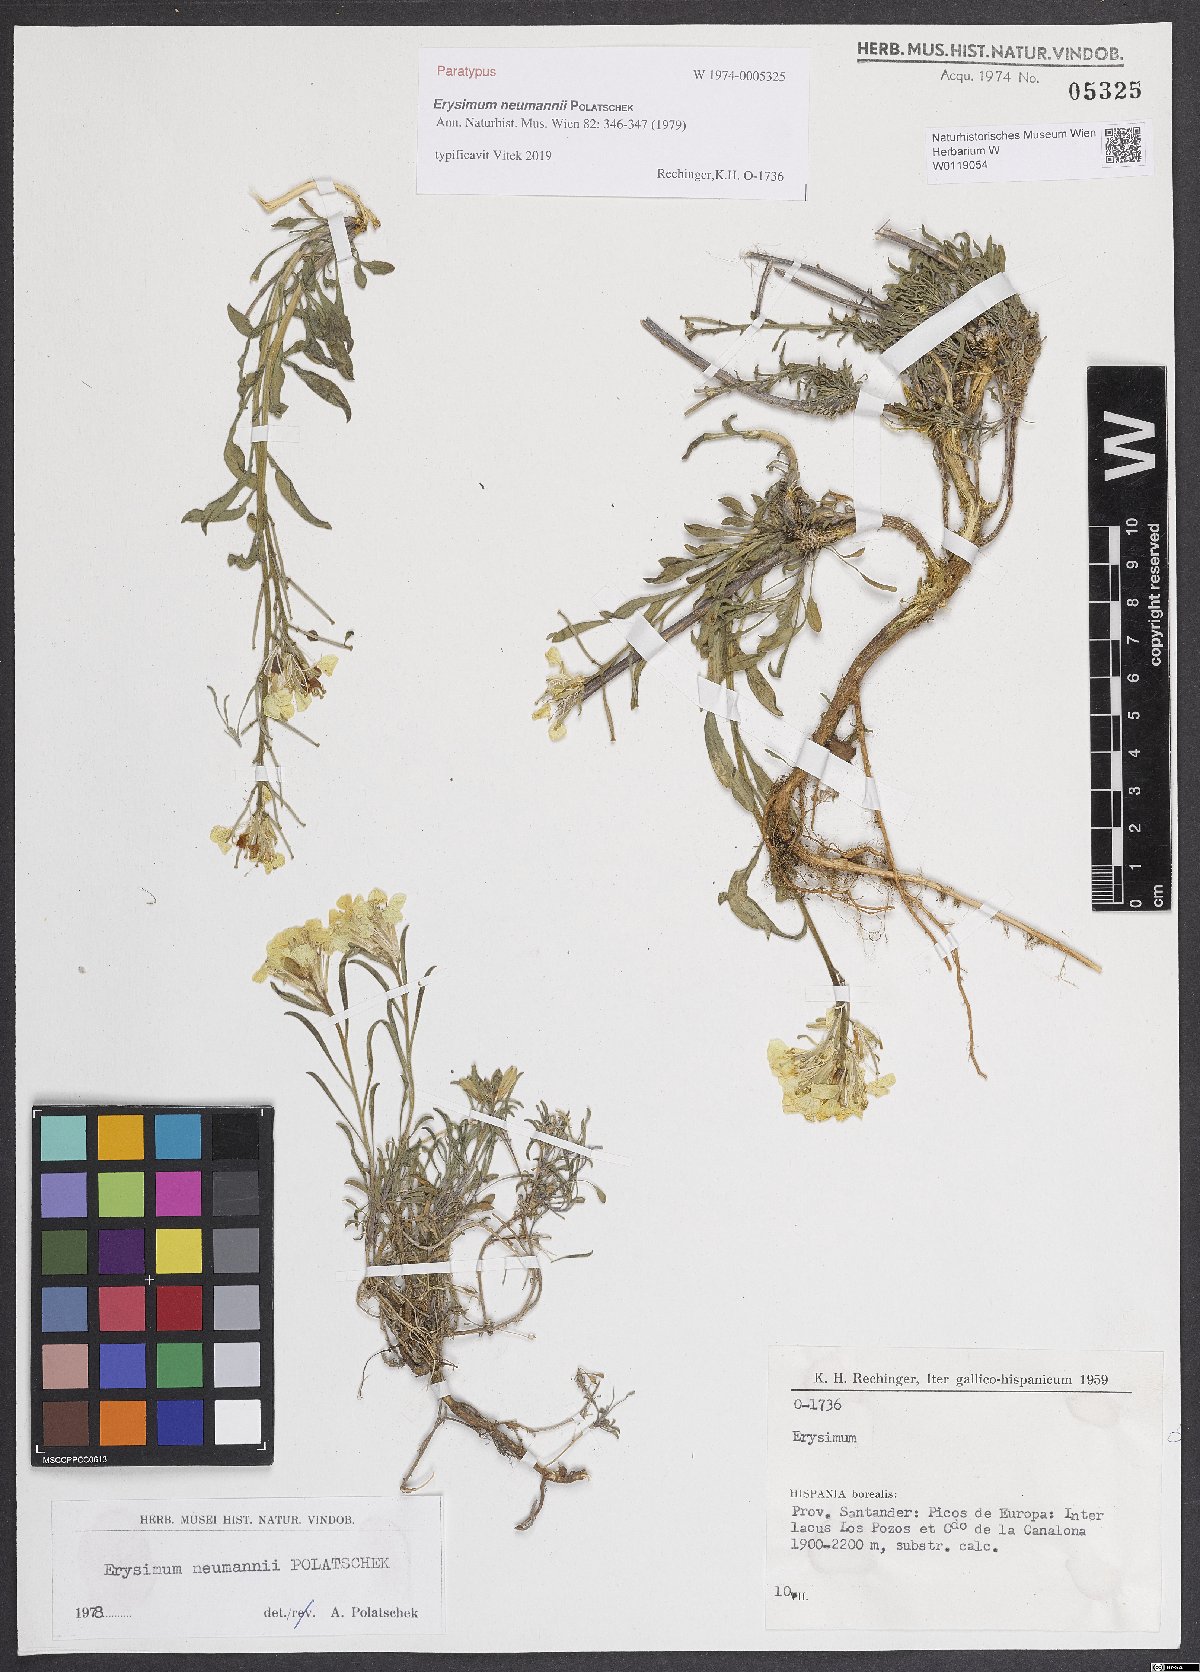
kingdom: Plantae
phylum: Tracheophyta
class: Magnoliopsida
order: Brassicales
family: Brassicaceae
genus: Erysimum
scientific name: Erysimum duriaei
